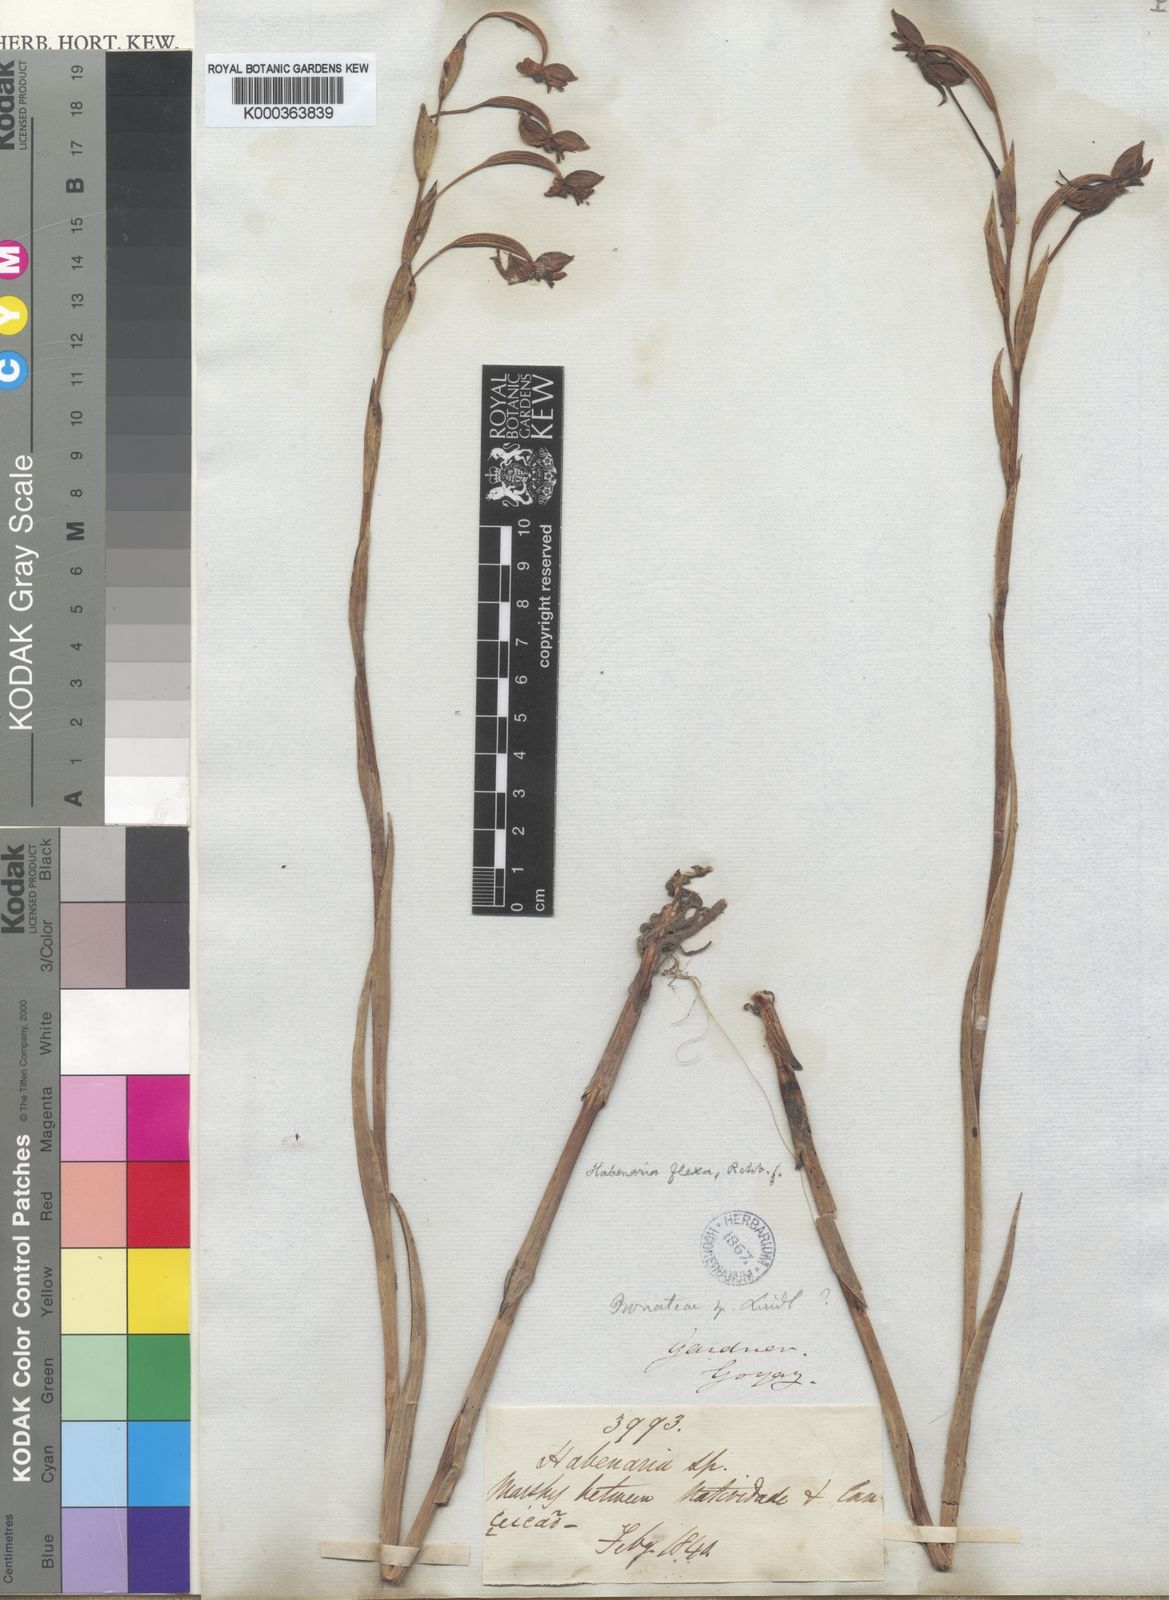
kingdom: Plantae
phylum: Tracheophyta
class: Liliopsida
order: Asparagales
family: Orchidaceae
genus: Habenaria
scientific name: Habenaria trifida
